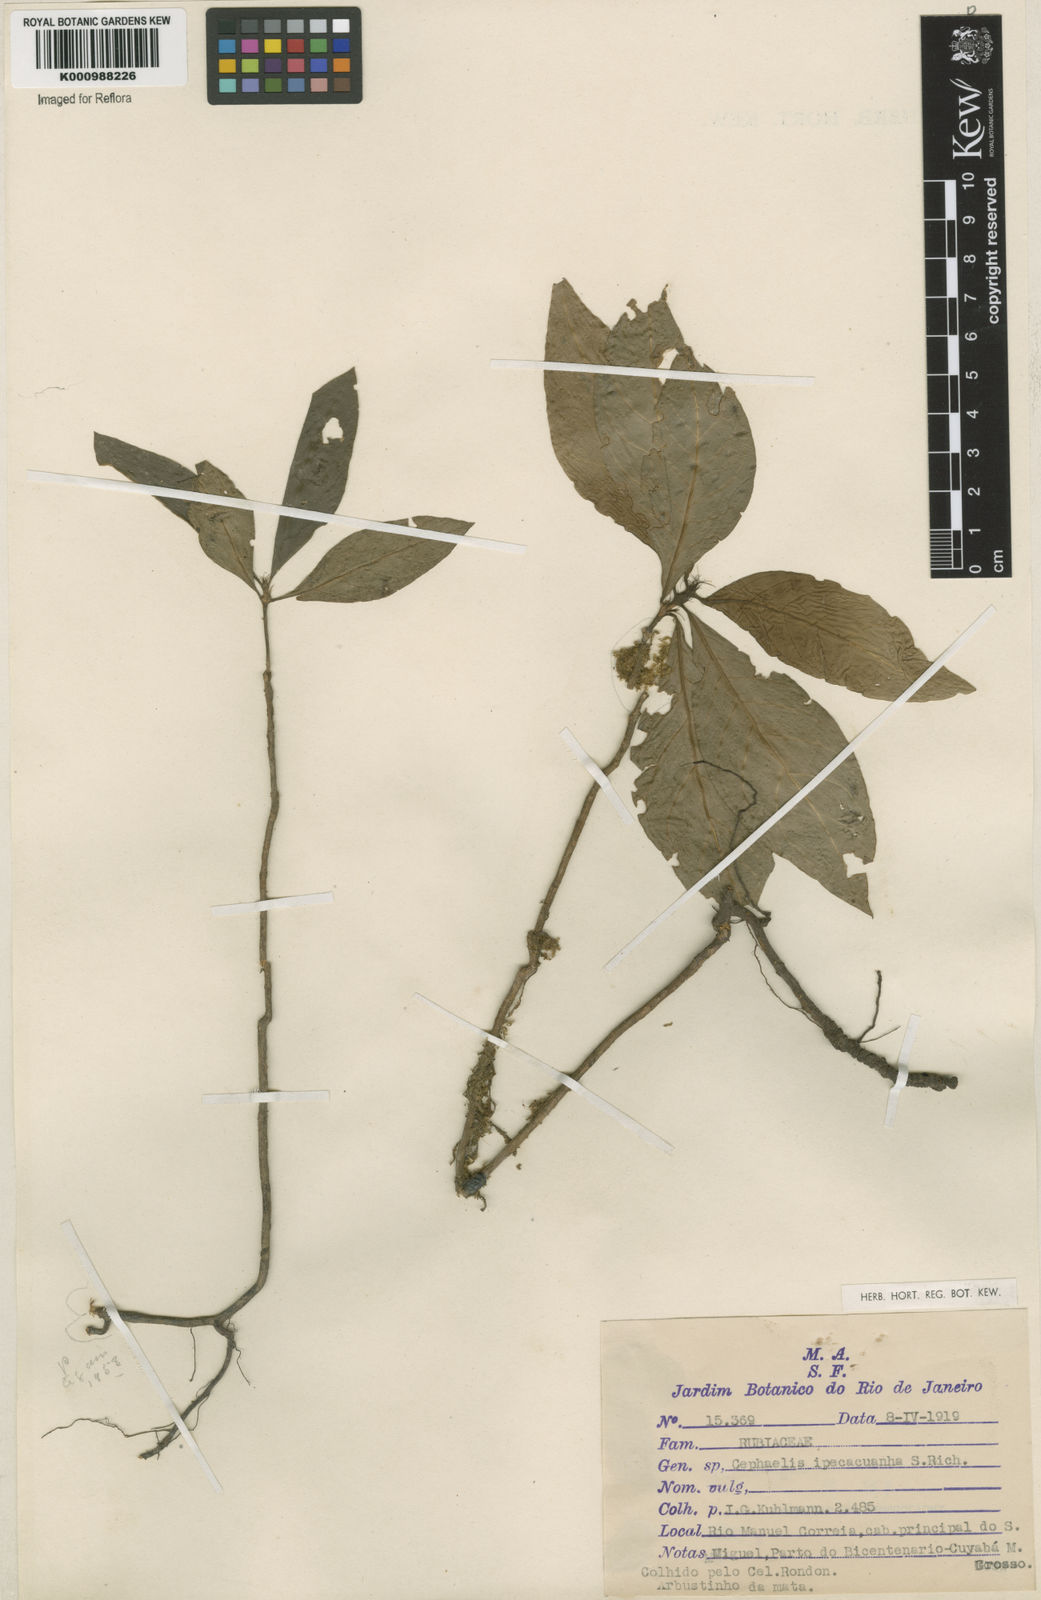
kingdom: Plantae
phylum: Tracheophyta
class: Magnoliopsida
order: Gentianales
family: Rubiaceae
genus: Carapichea
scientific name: Carapichea ipecacuanha
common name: Ipecac
